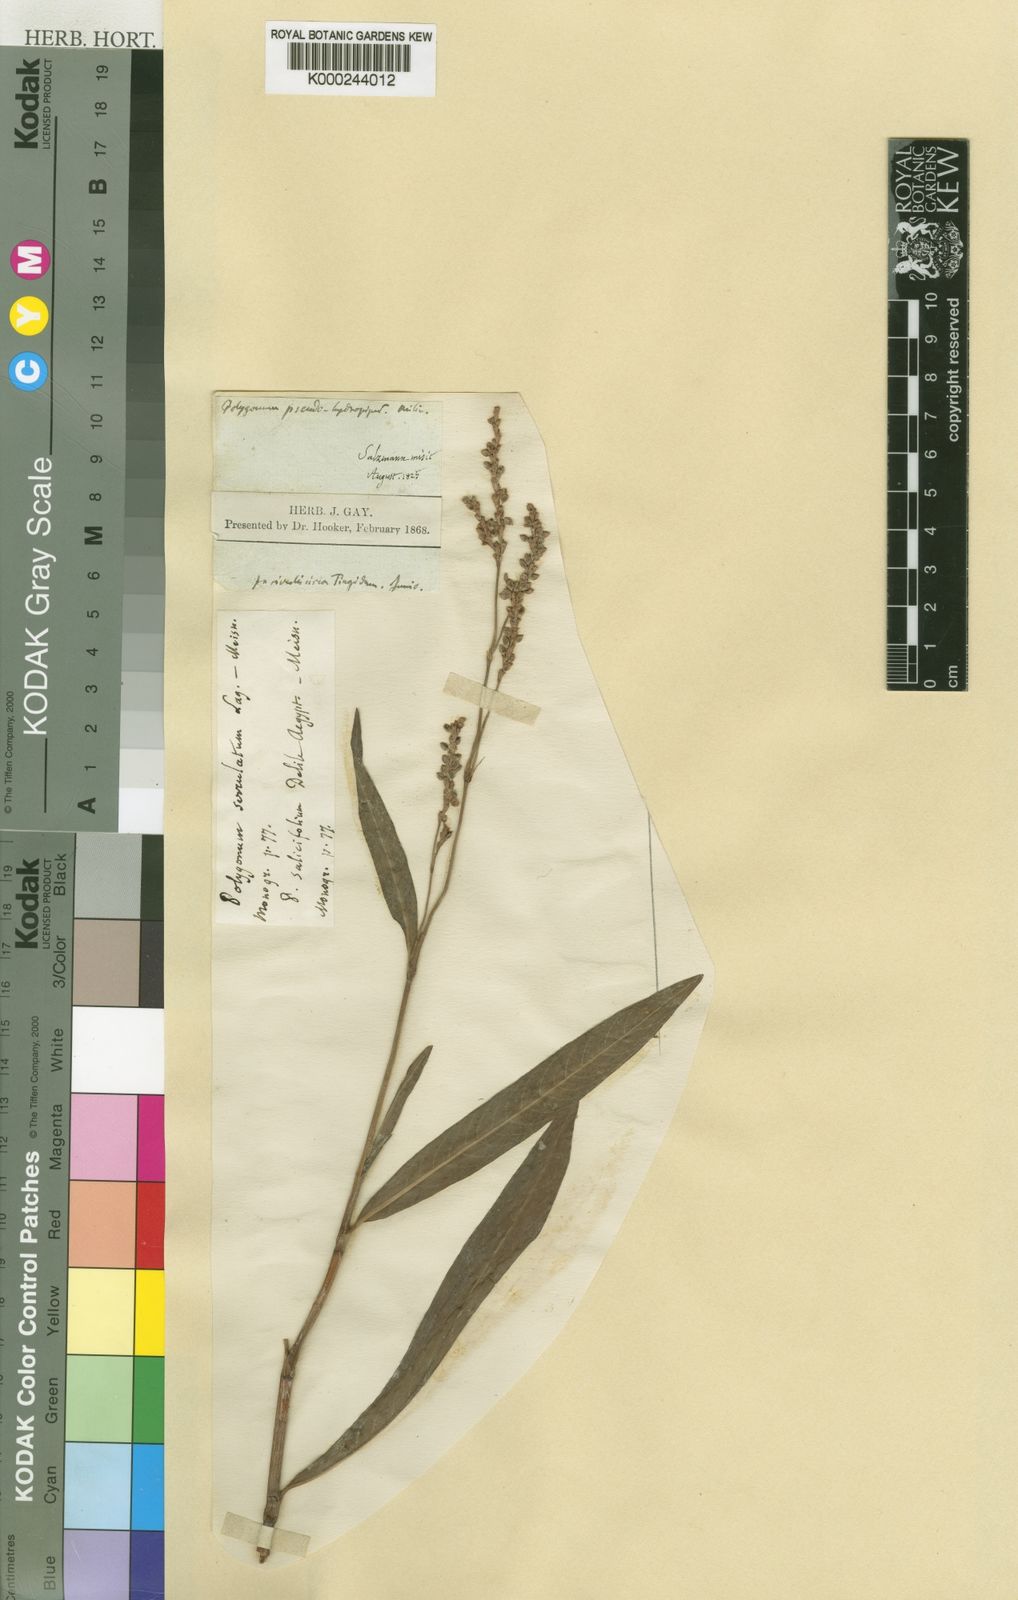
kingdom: Plantae
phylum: Tracheophyta
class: Magnoliopsida
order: Caryophyllales
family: Polygonaceae
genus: Polygonum
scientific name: Polygonum
